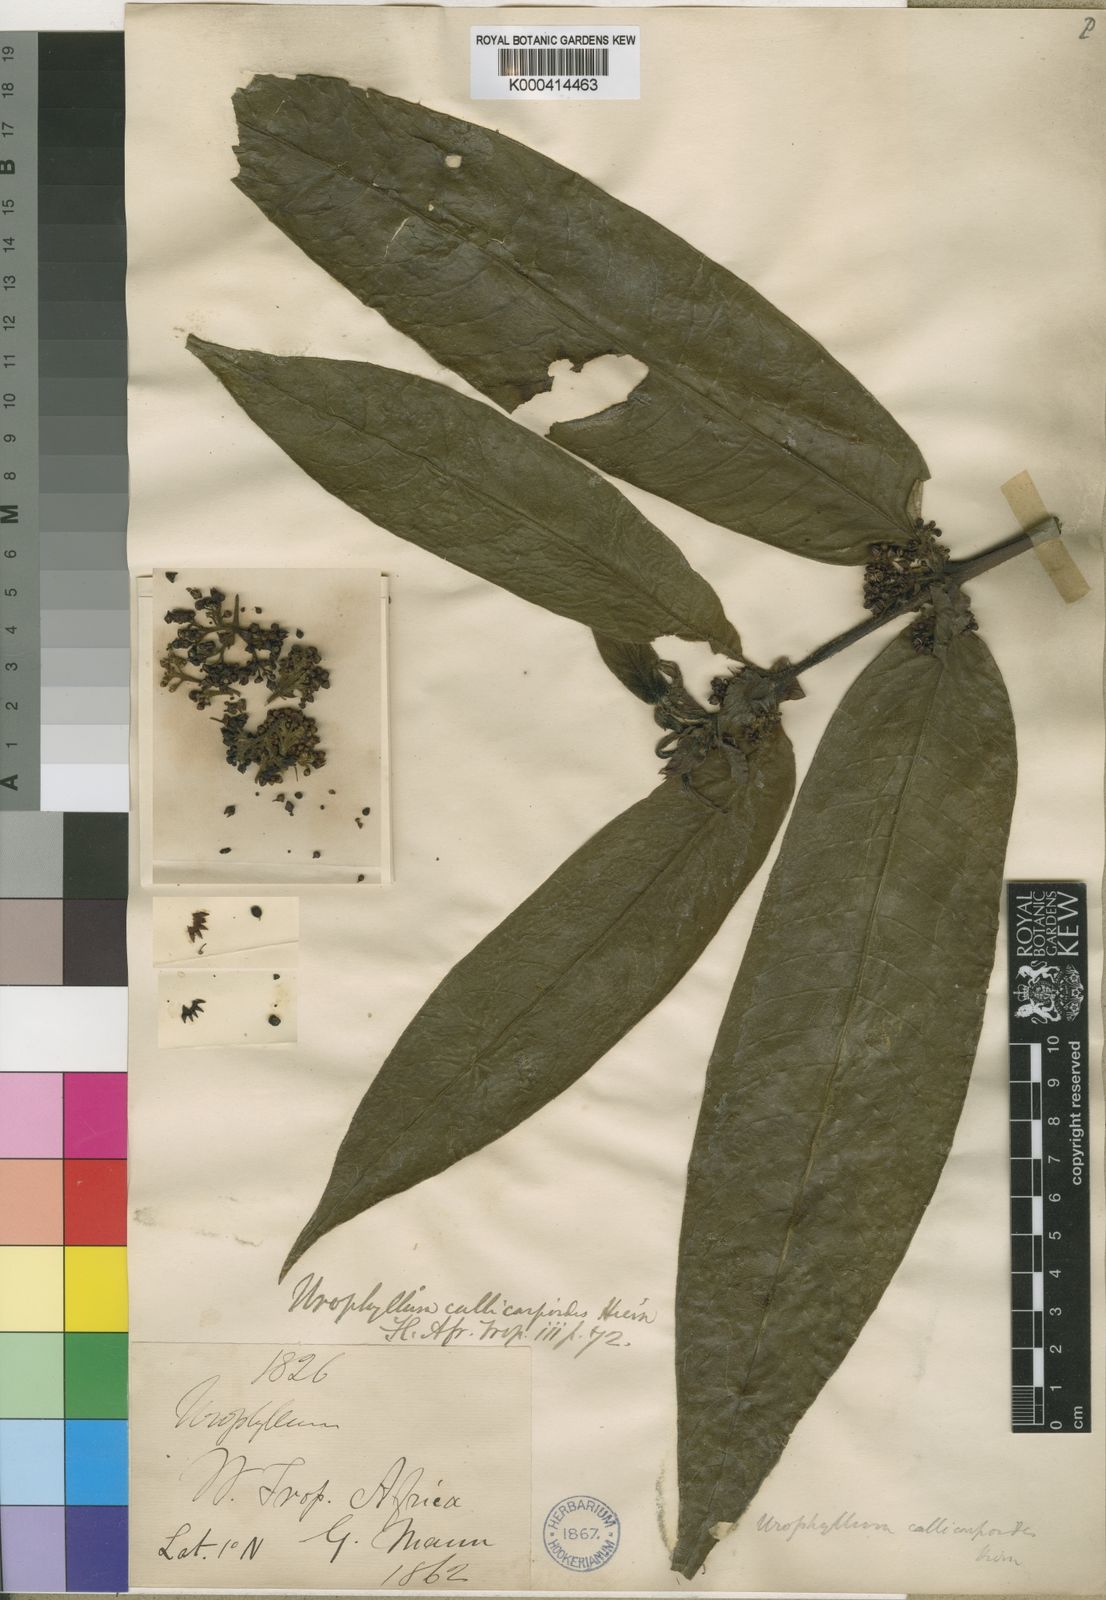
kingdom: Plantae
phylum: Tracheophyta
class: Magnoliopsida
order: Gentianales
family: Rubiaceae
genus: Pauridiantha
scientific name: Pauridiantha callicarpoides
